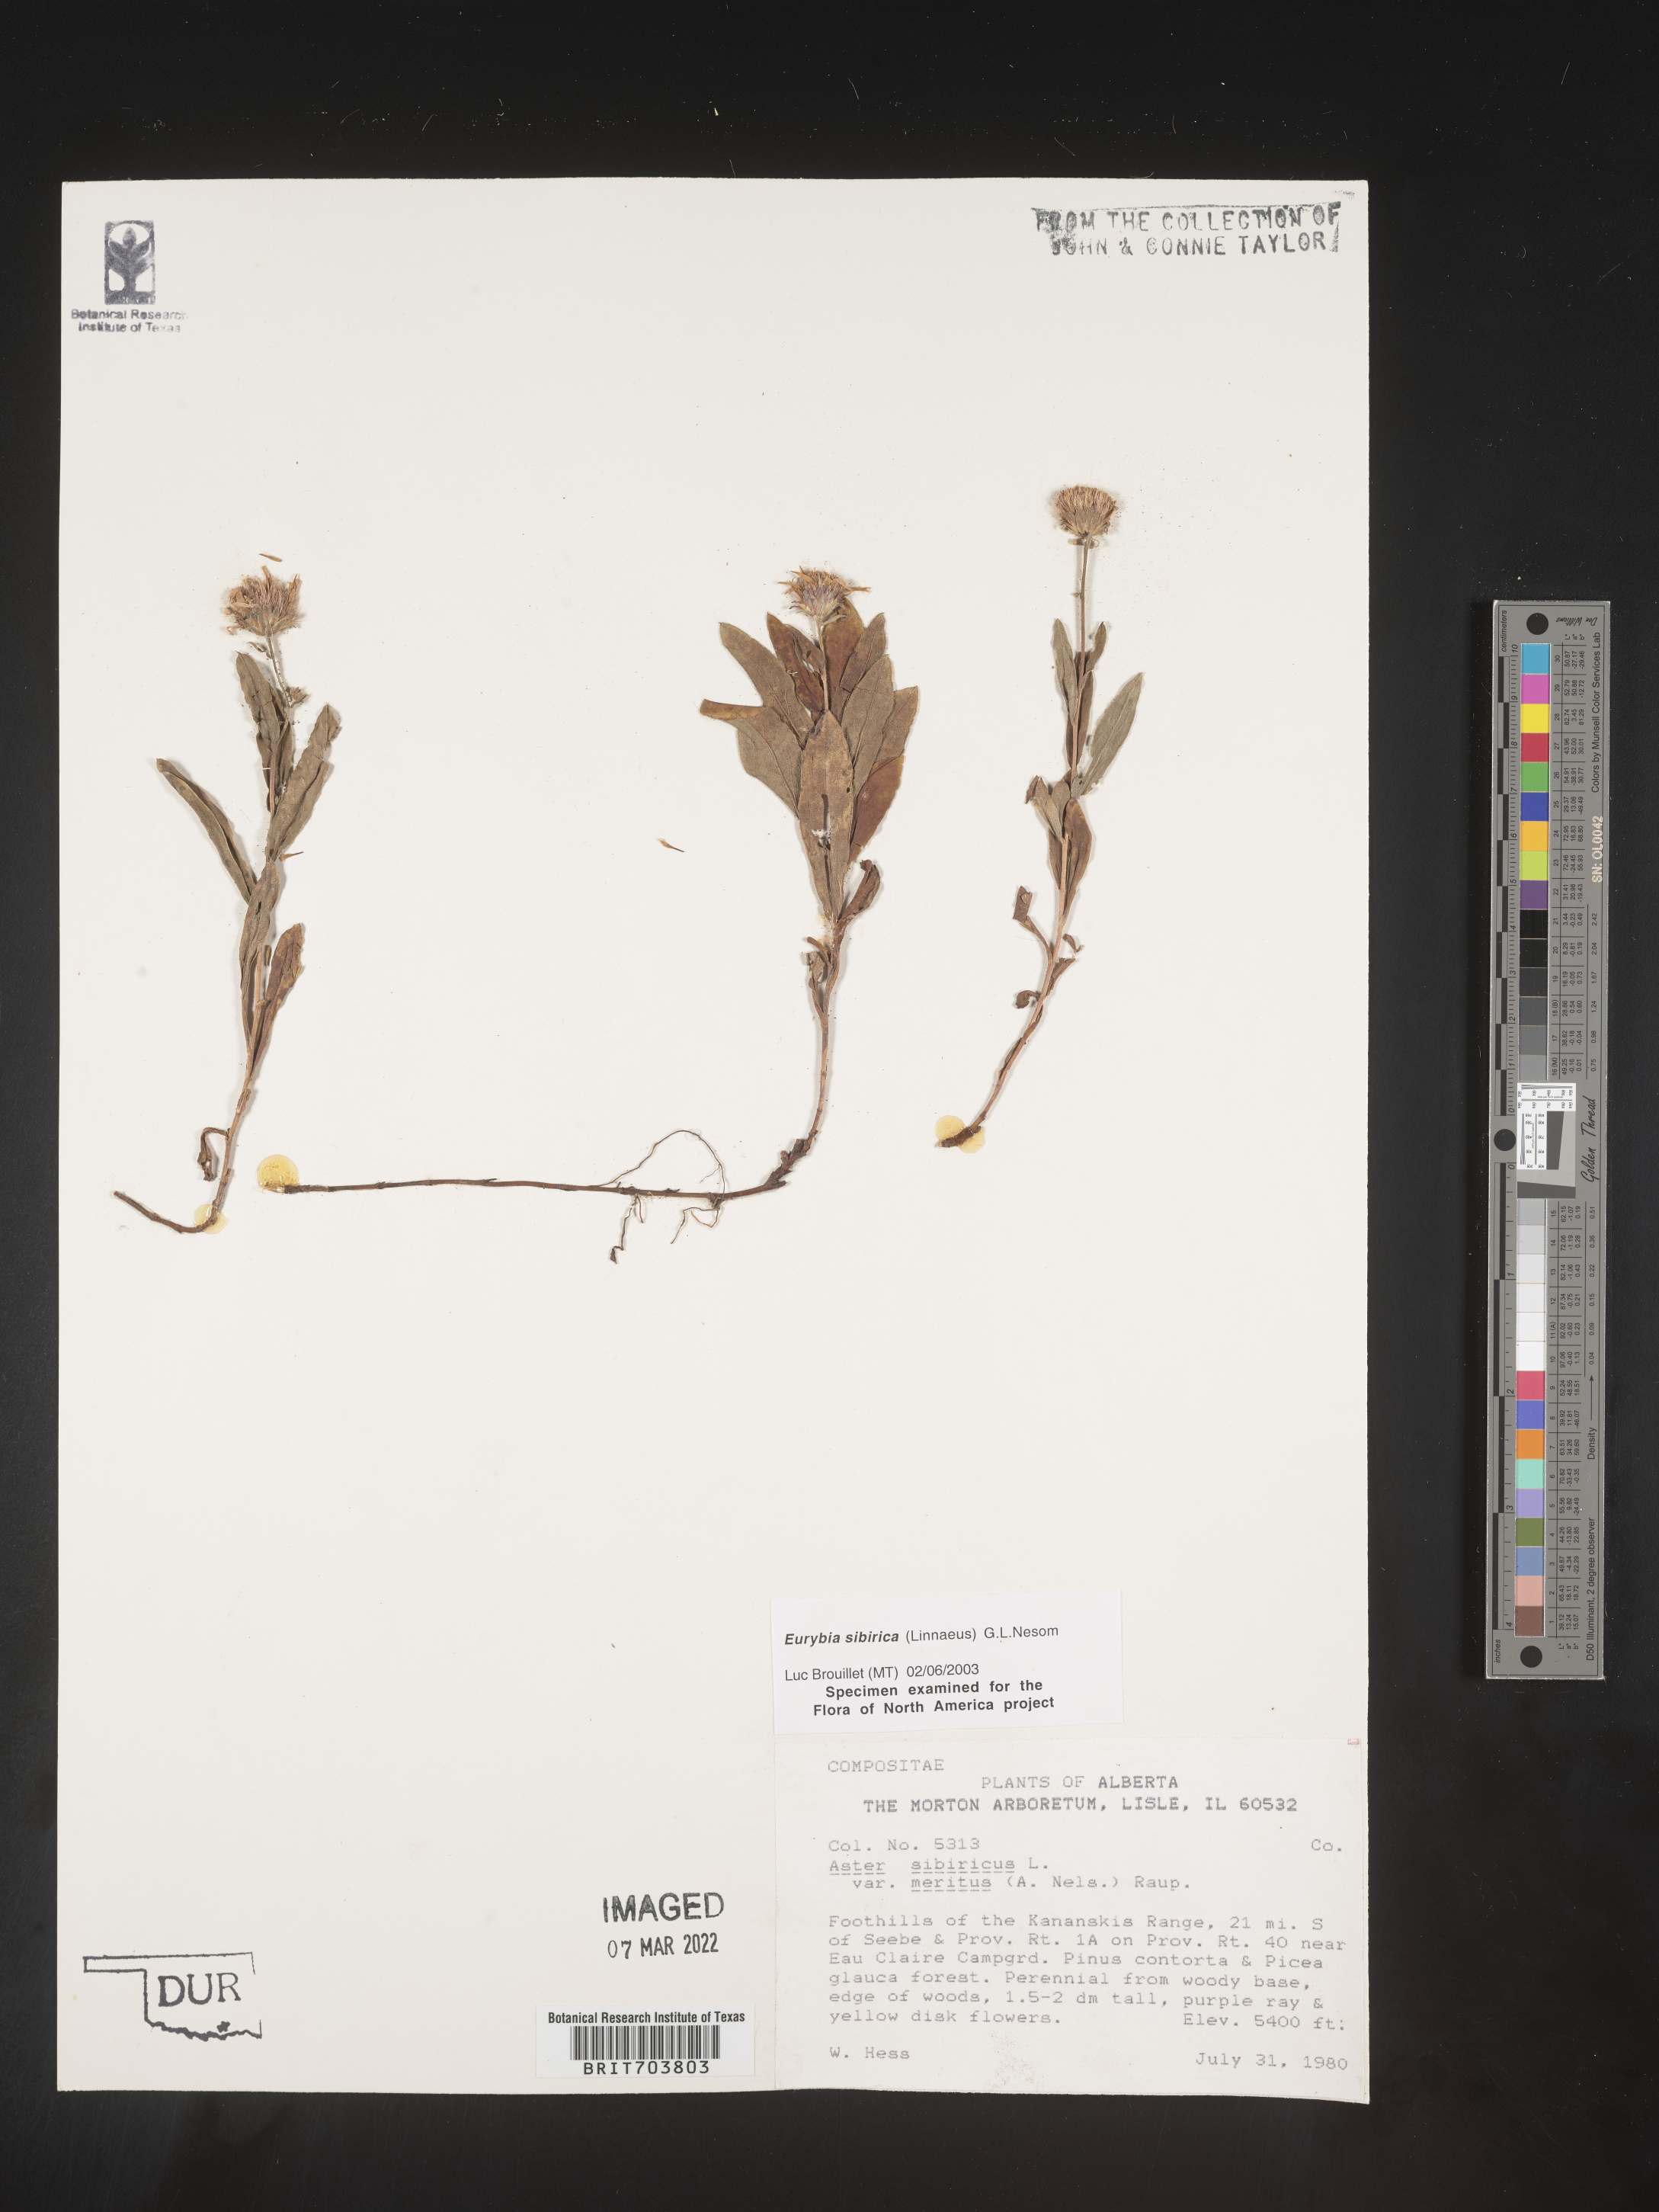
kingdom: Plantae
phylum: Tracheophyta
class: Magnoliopsida
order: Asterales
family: Asteraceae
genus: Eurybia
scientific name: Eurybia sibirica
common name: Arctic aster
